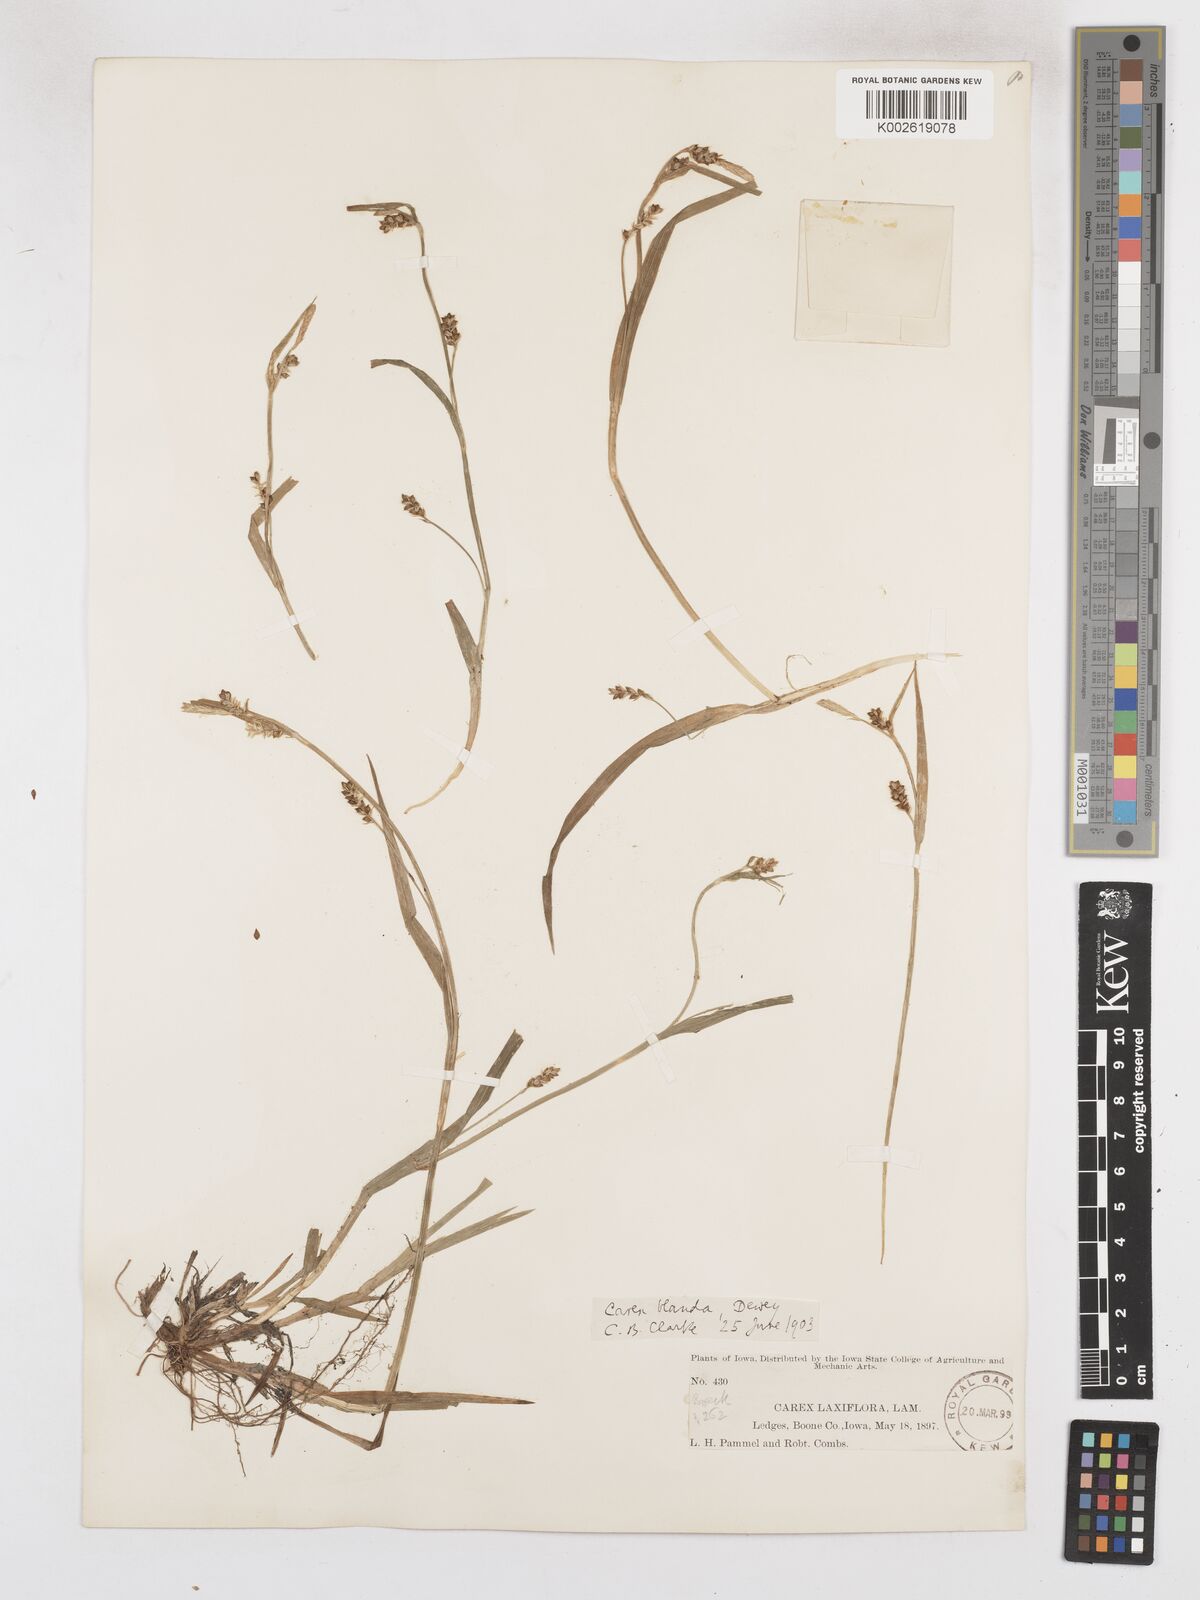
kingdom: Plantae
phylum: Tracheophyta
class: Liliopsida
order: Poales
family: Cyperaceae
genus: Carex
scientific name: Carex blanda
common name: Bland sedge
